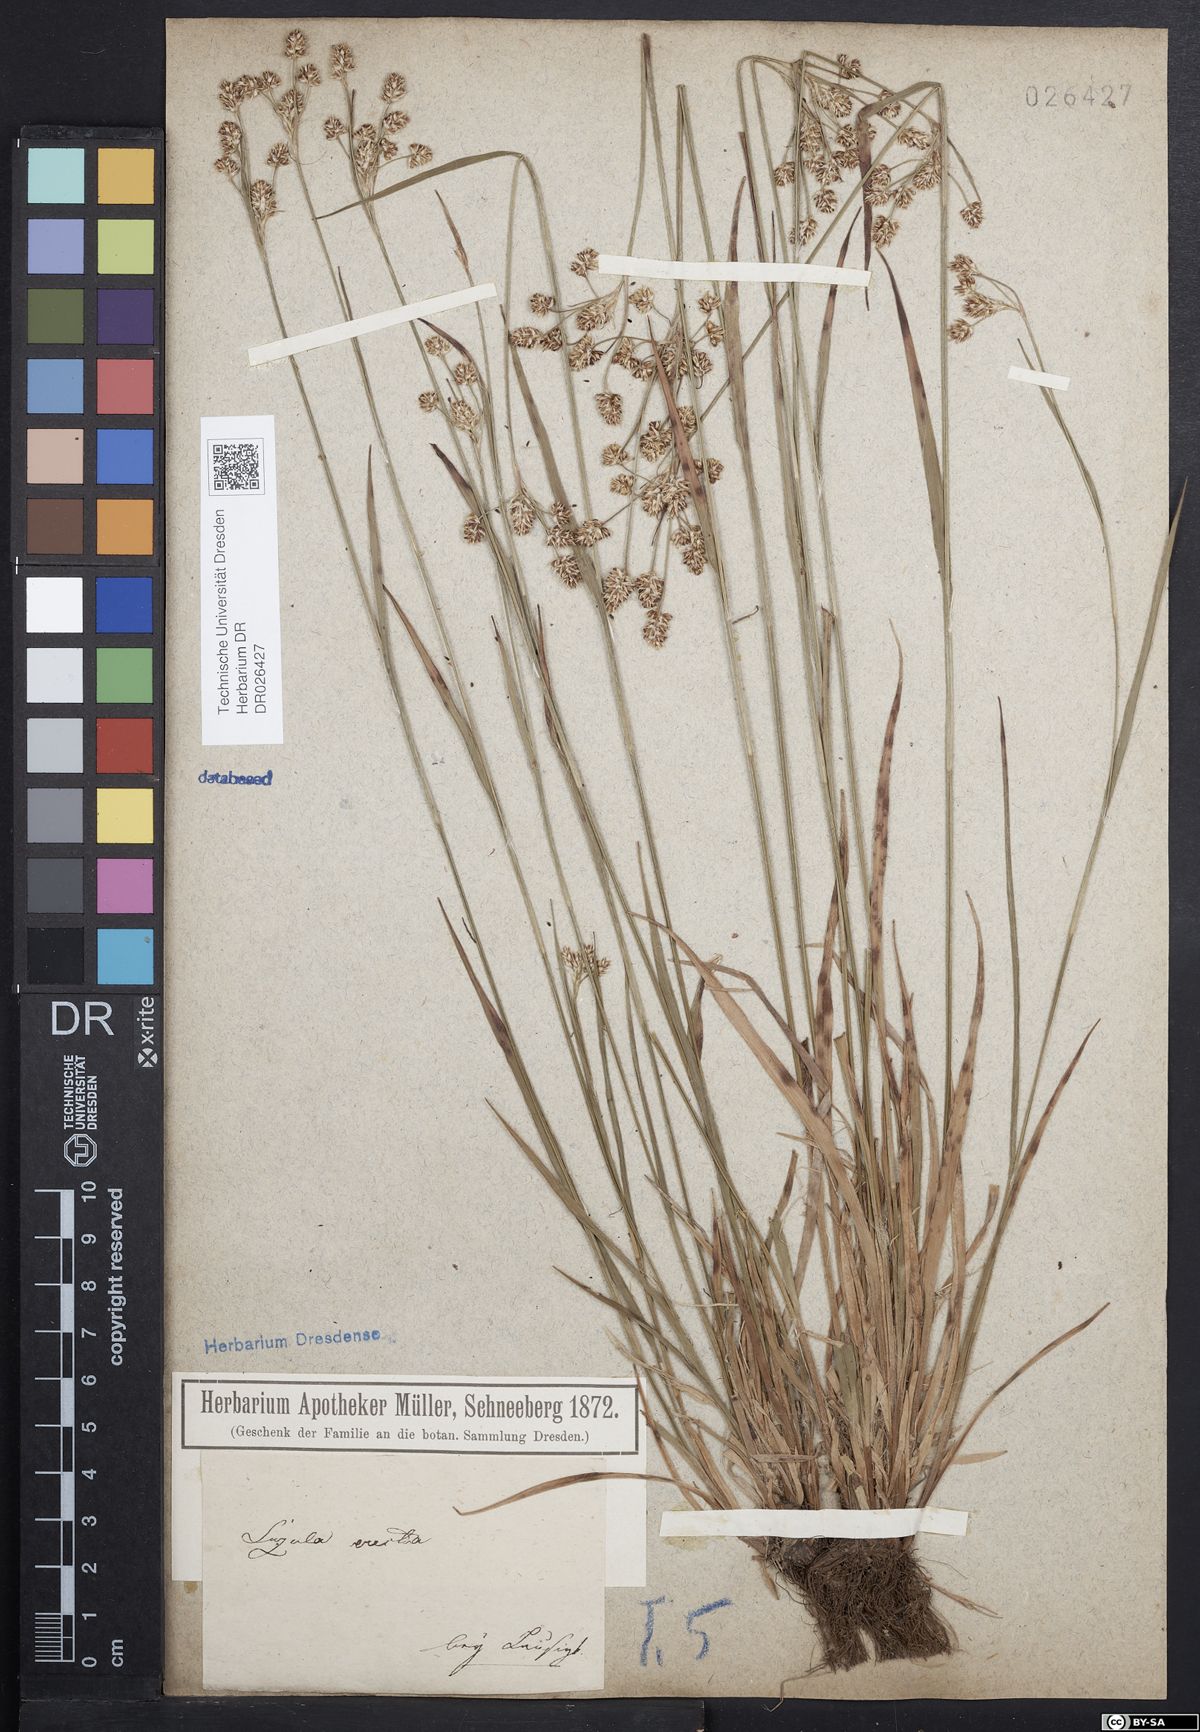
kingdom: Plantae
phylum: Tracheophyta
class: Liliopsida
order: Poales
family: Juncaceae
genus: Luzula
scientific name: Luzula multiflora
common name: Heath wood-rush
